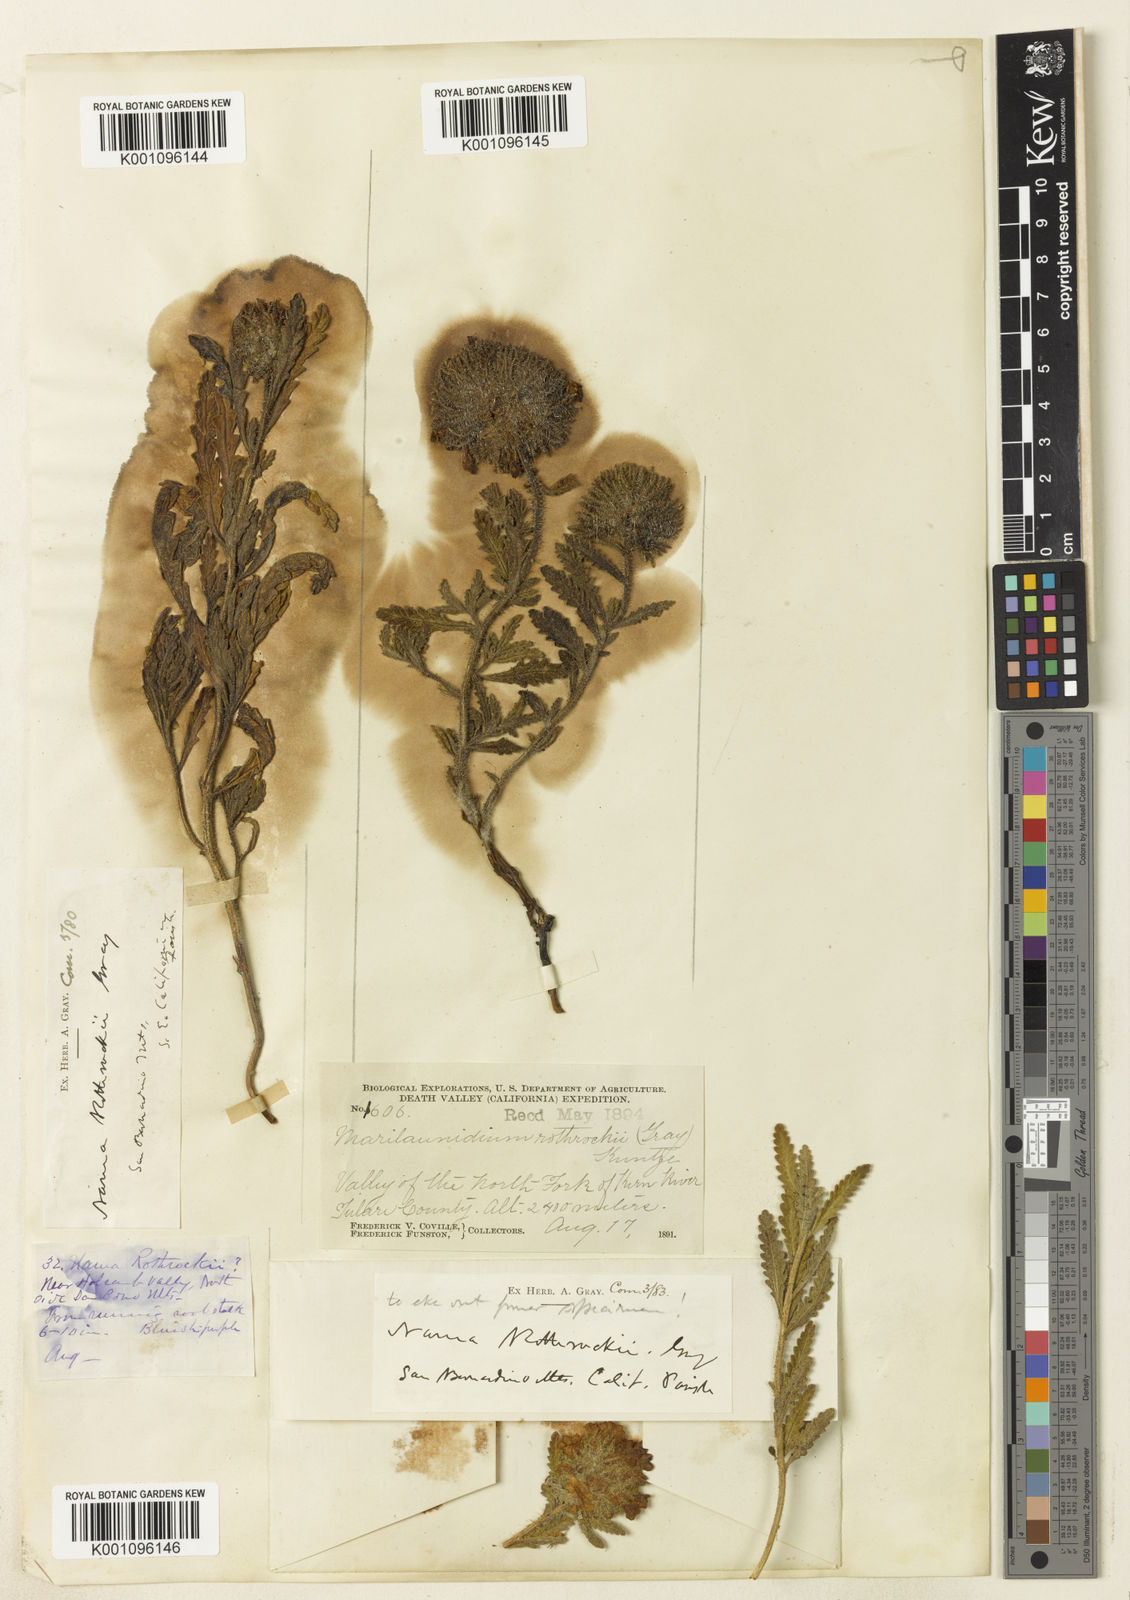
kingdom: Plantae
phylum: Tracheophyta
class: Magnoliopsida
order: Boraginales
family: Namaceae
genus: Nama
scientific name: Nama rothrockii
